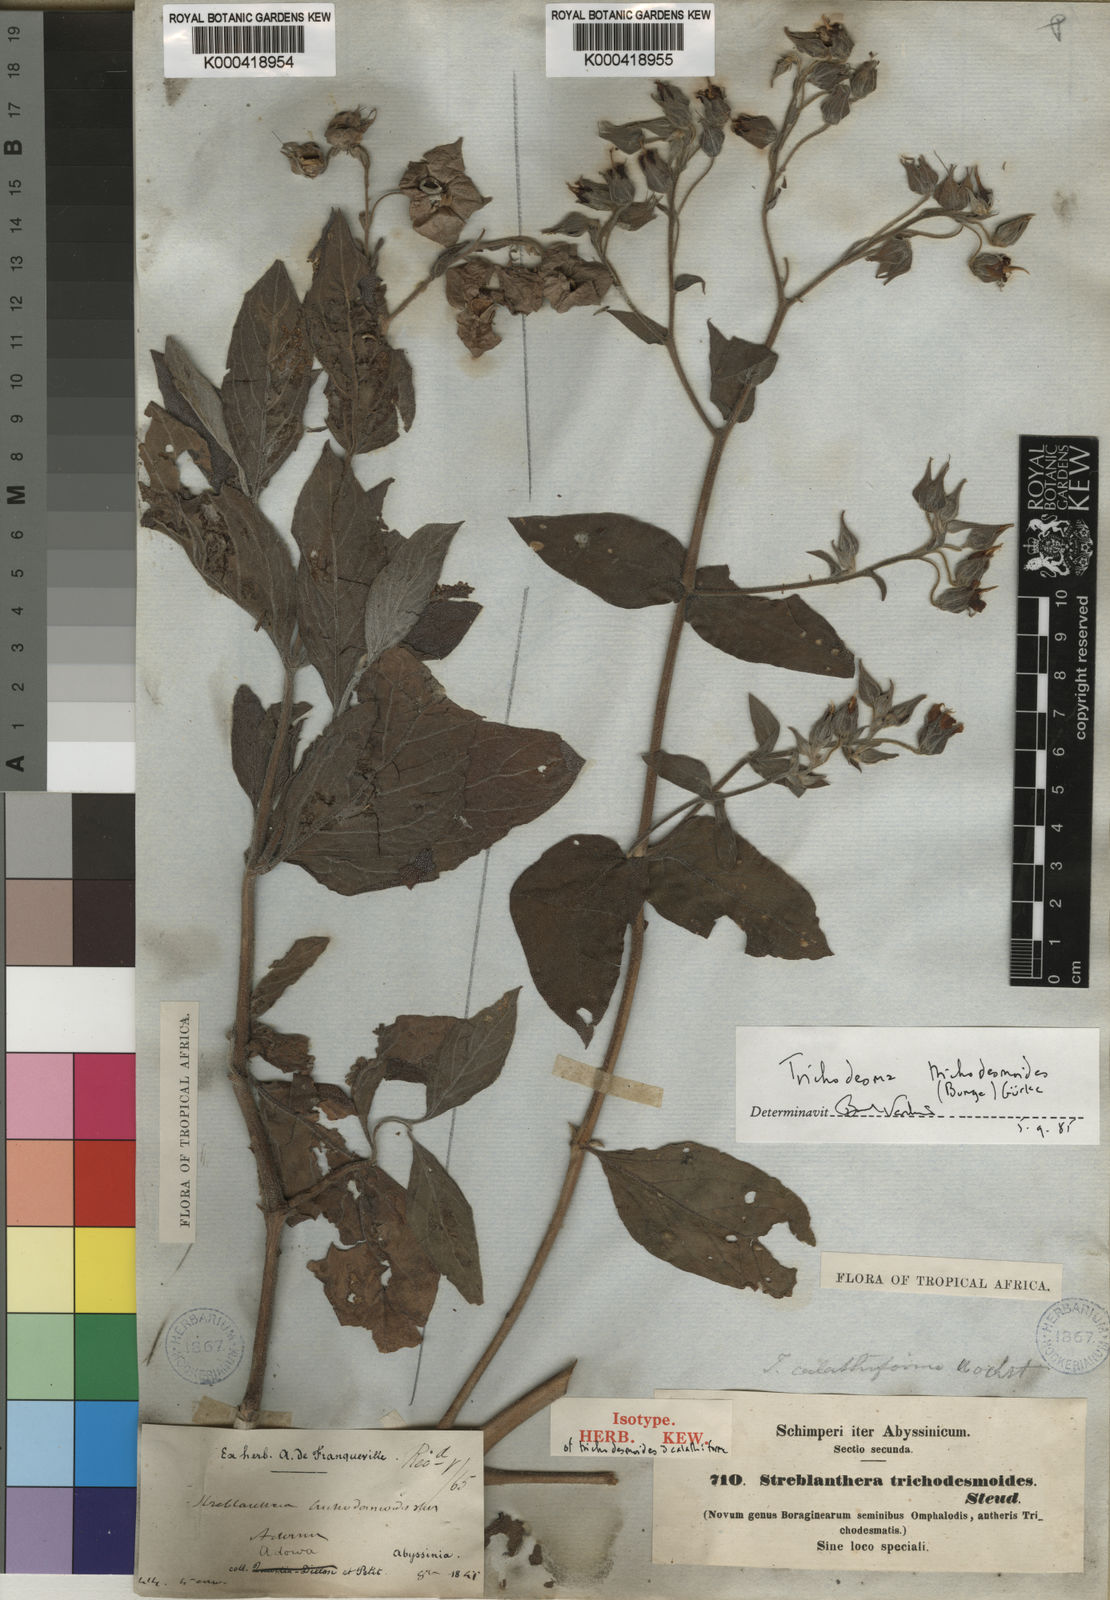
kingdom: Plantae
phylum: Tracheophyta
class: Magnoliopsida
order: Boraginales
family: Boraginaceae
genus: Trichodesma
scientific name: Trichodesma
